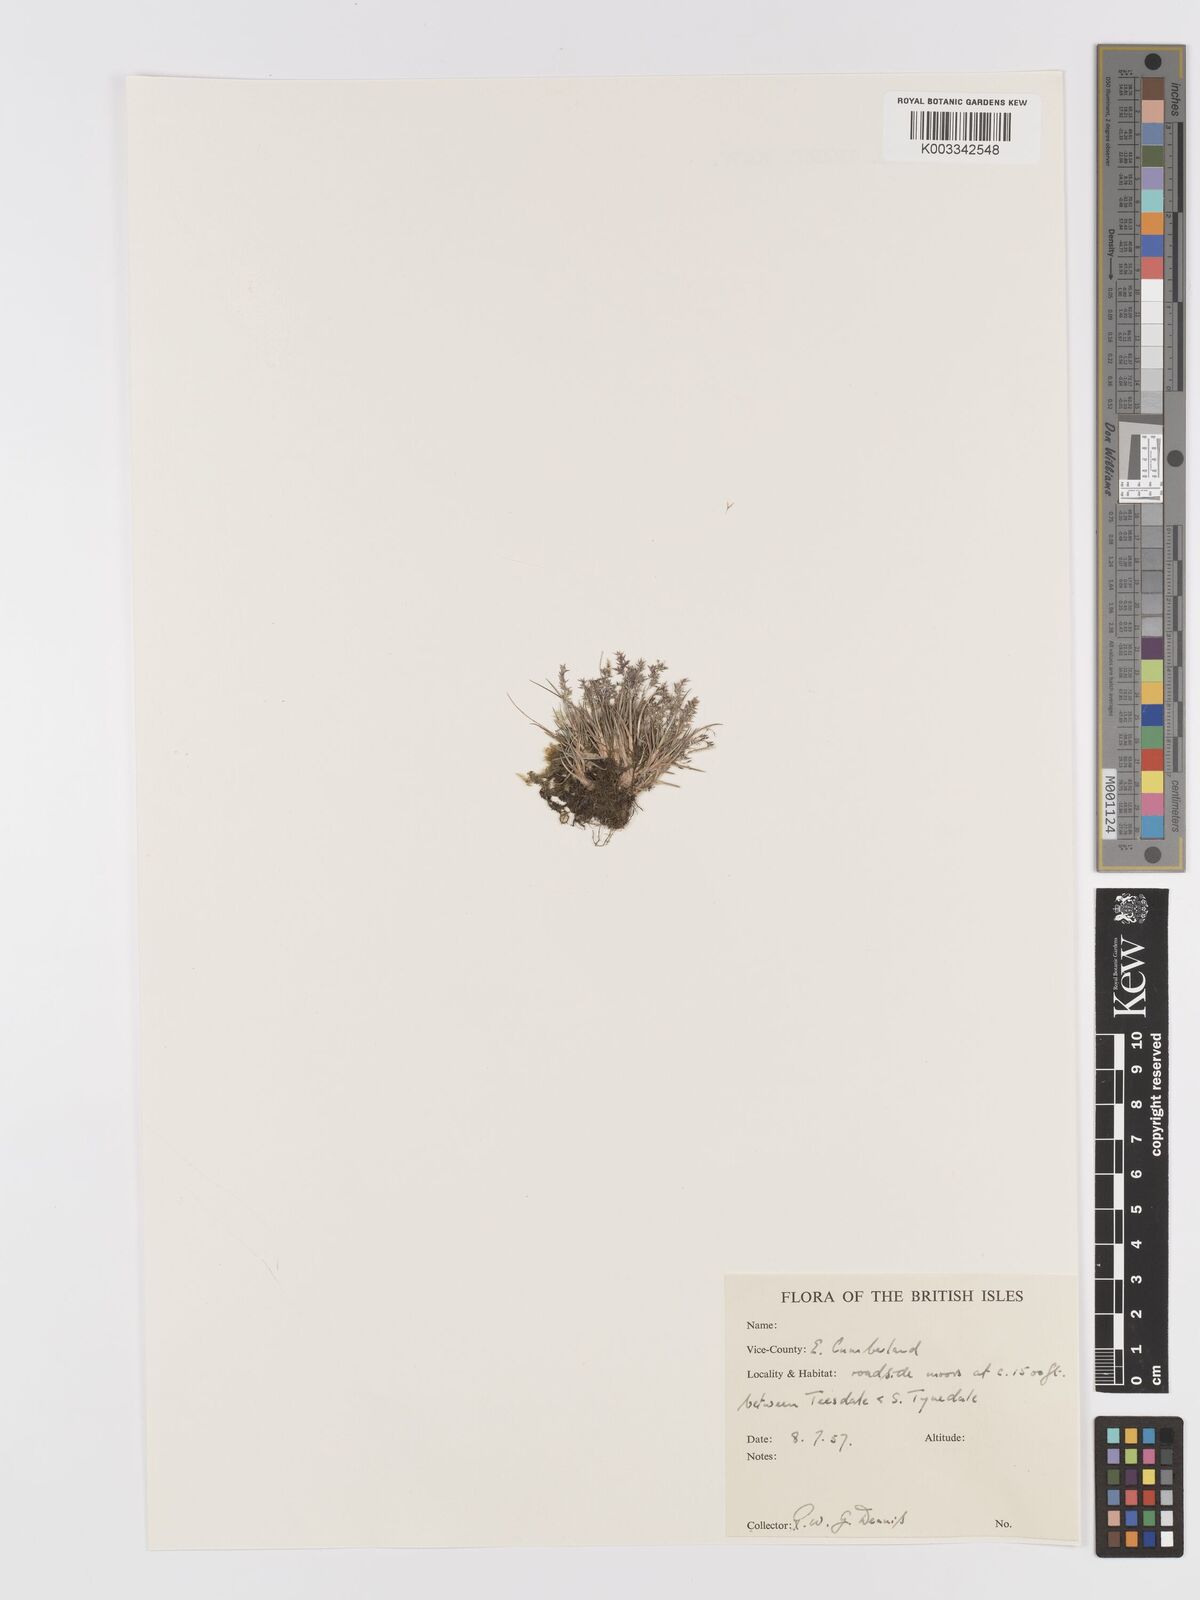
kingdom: Plantae
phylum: Tracheophyta
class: Liliopsida
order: Poales
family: Poaceae
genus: Agrostis
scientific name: Agrostis
